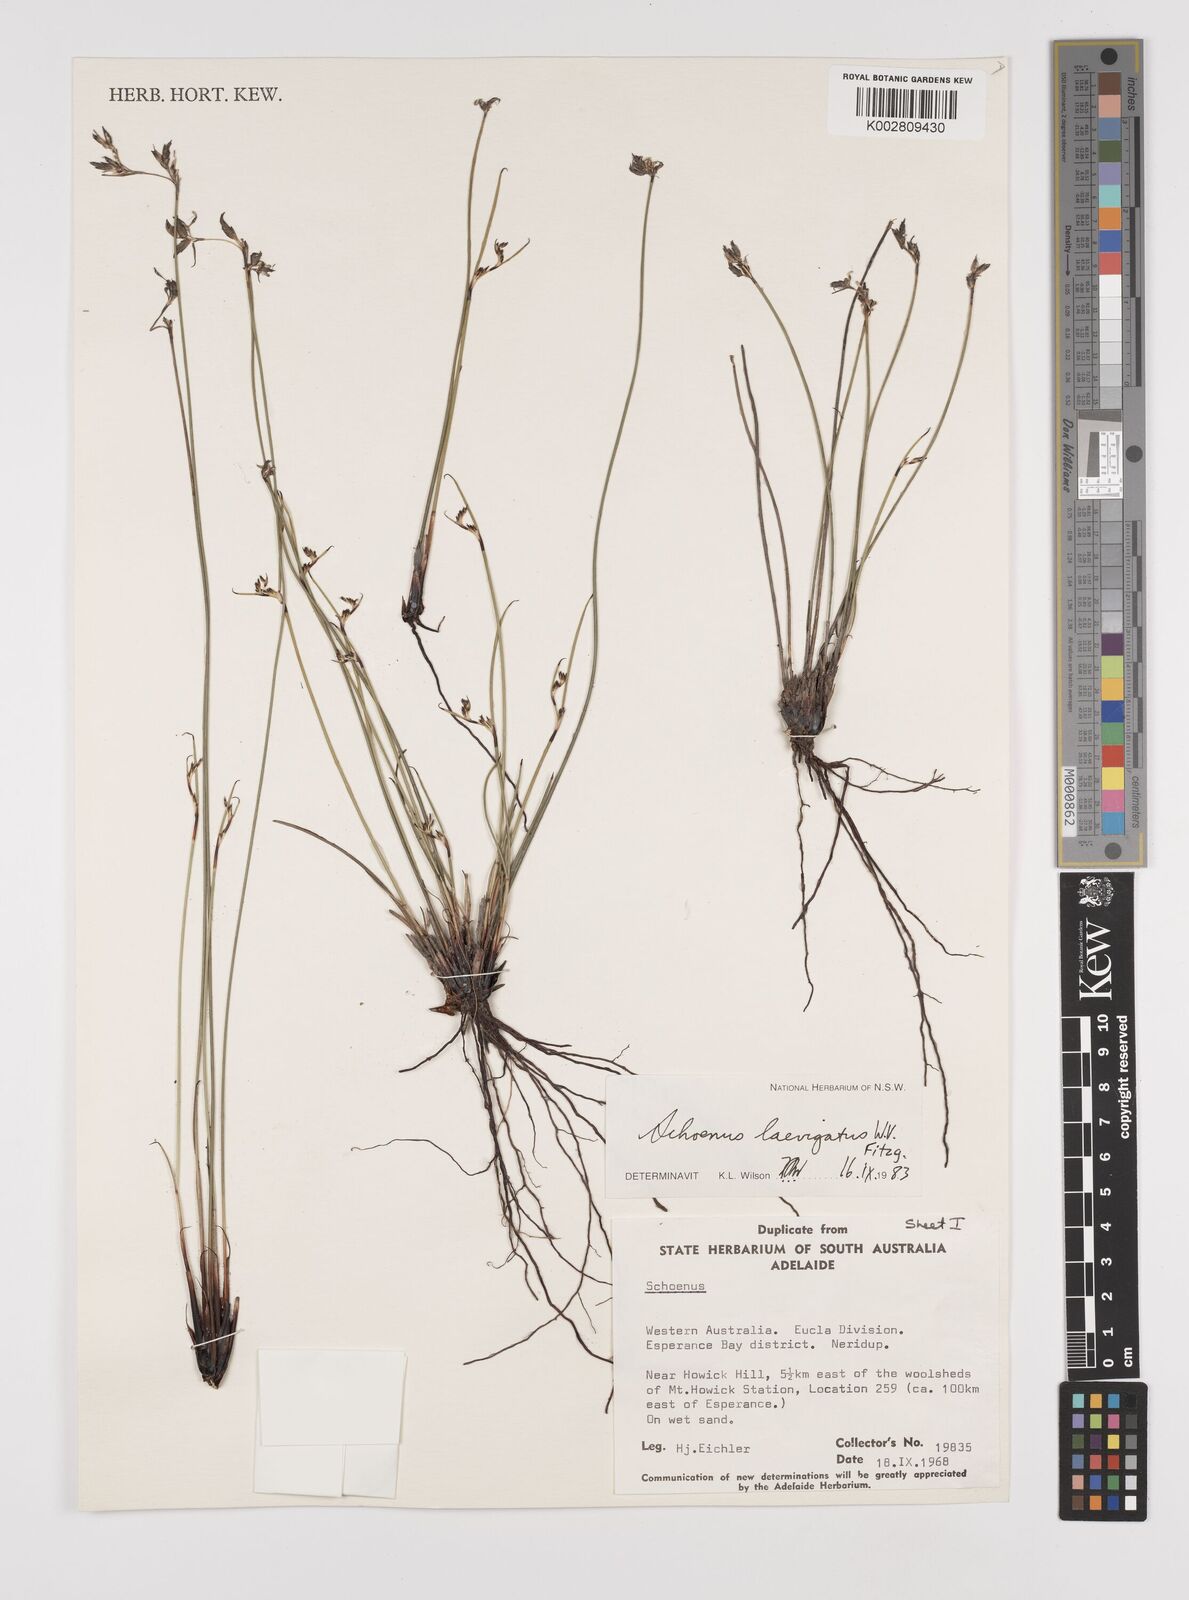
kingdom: Plantae
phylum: Tracheophyta
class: Liliopsida
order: Poales
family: Cyperaceae
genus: Schoenus
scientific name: Schoenus laevigatus
